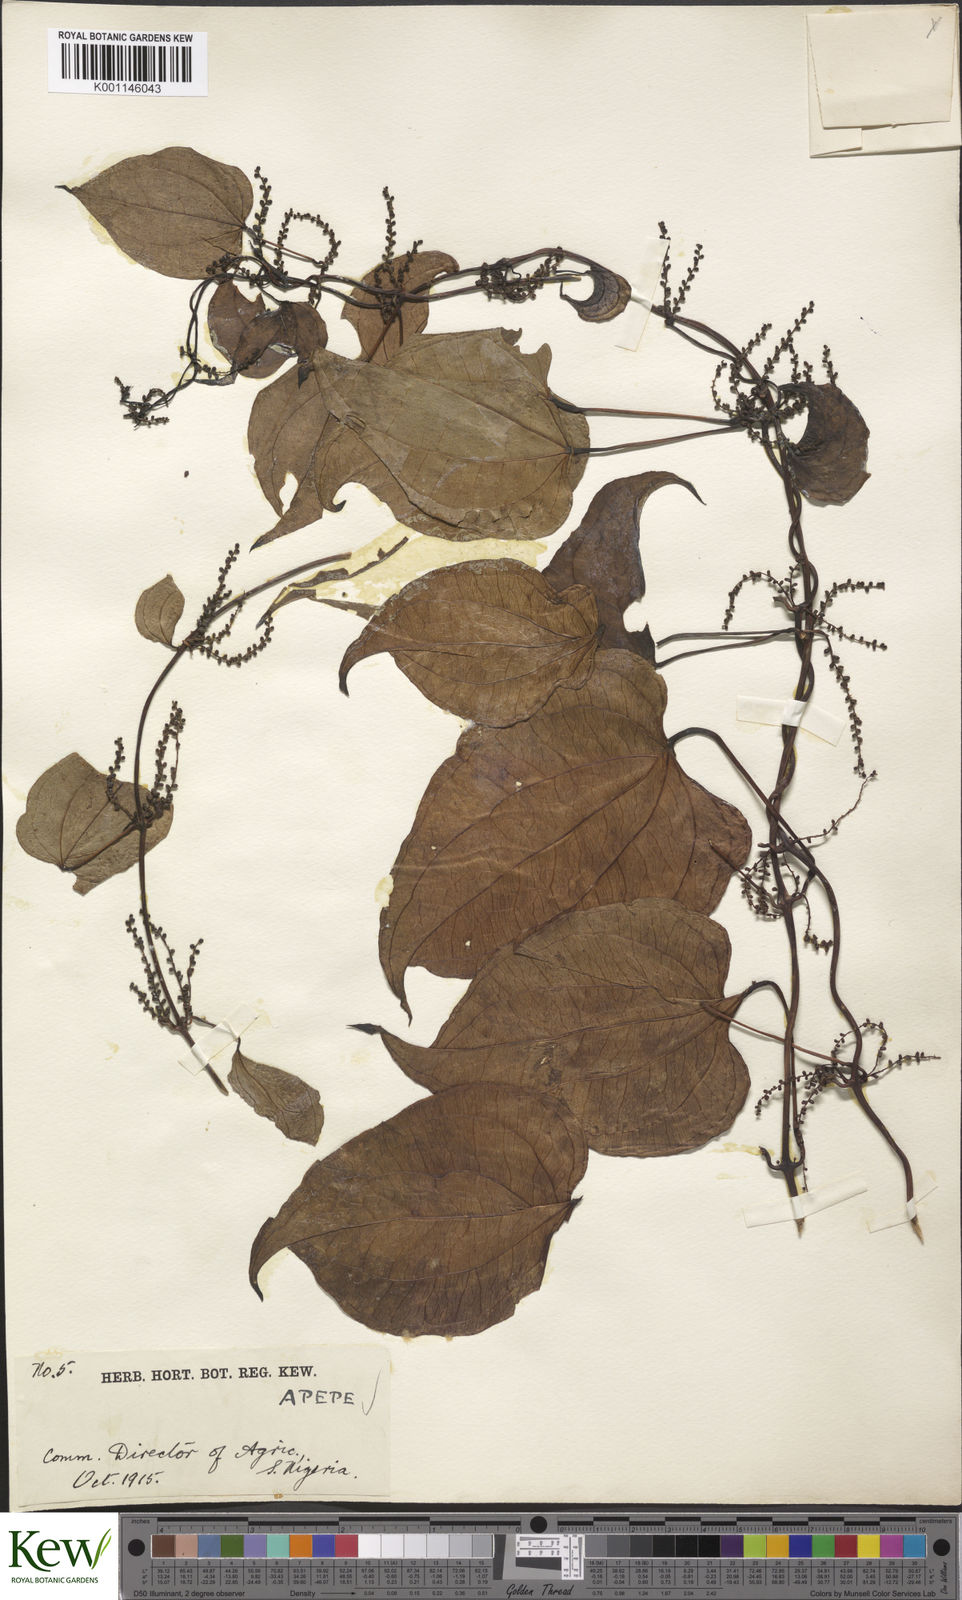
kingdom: Plantae
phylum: Tracheophyta
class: Liliopsida
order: Dioscoreales
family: Dioscoreaceae
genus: Dioscorea
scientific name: Dioscorea baya
